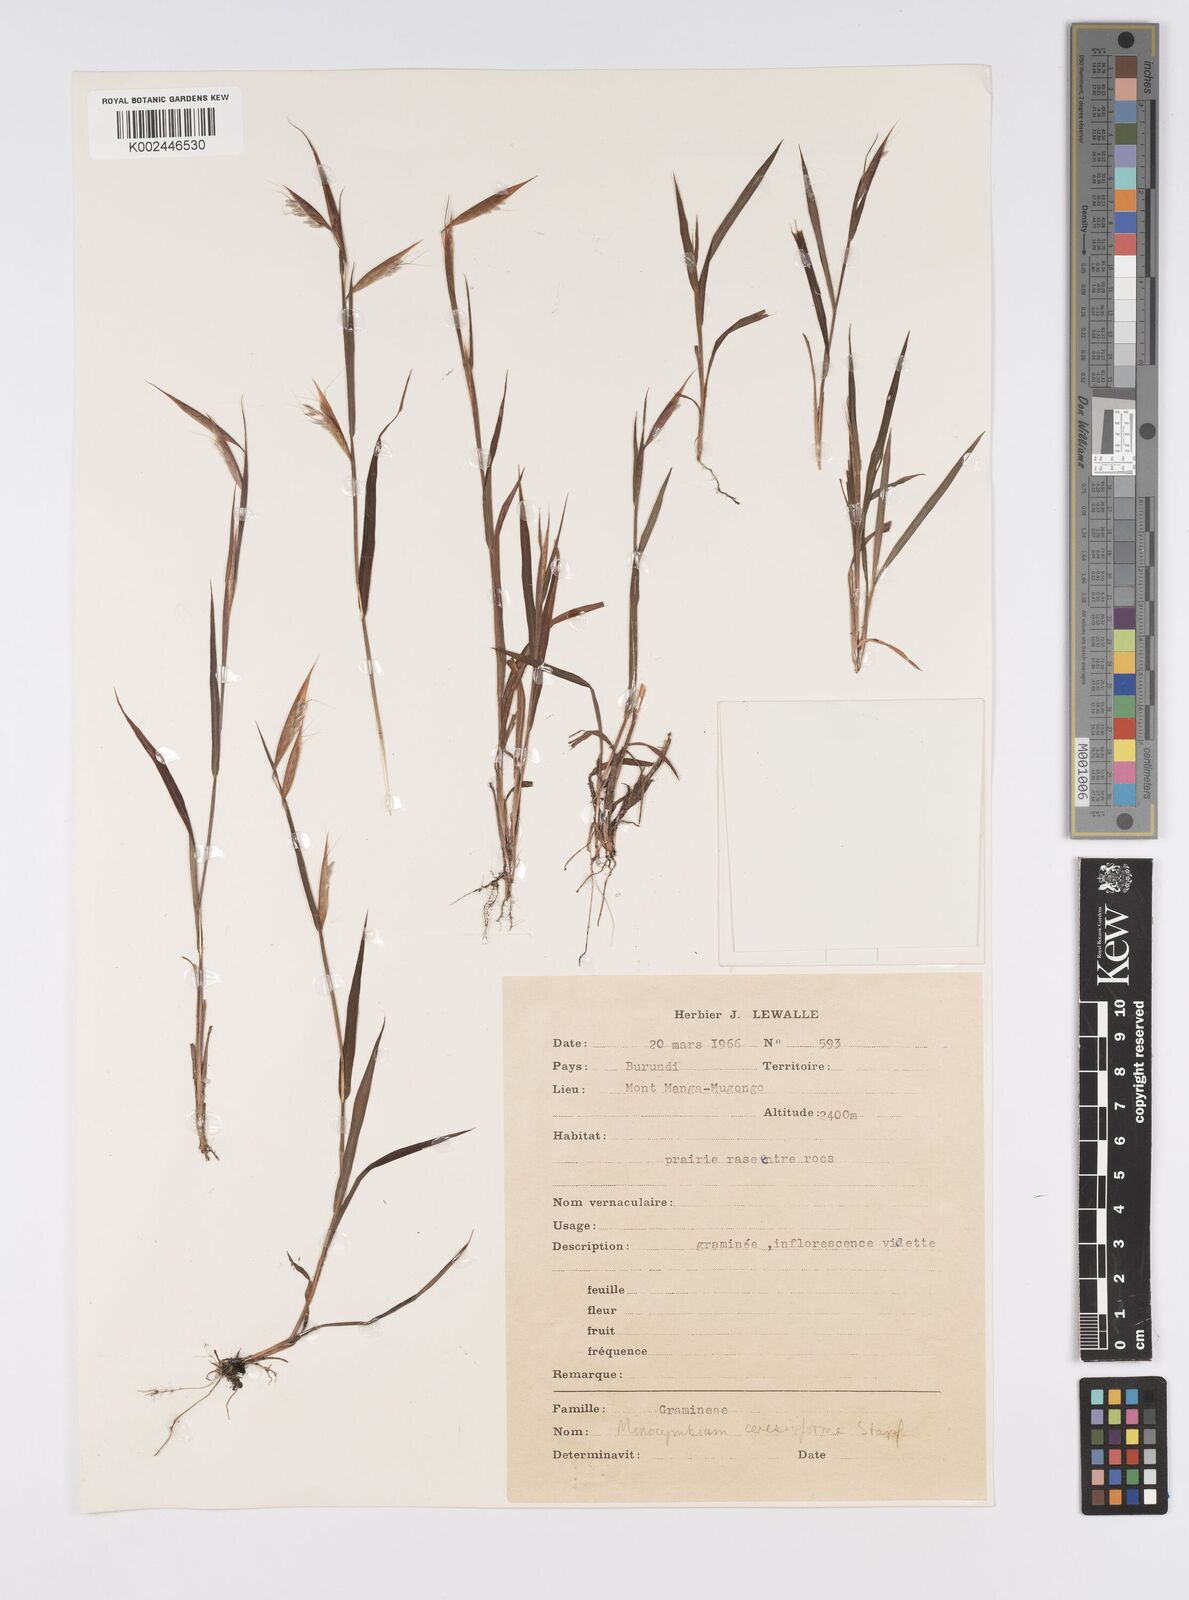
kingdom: Plantae
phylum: Tracheophyta
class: Liliopsida
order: Poales
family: Poaceae
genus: Monocymbium
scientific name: Monocymbium ceresiiforme
